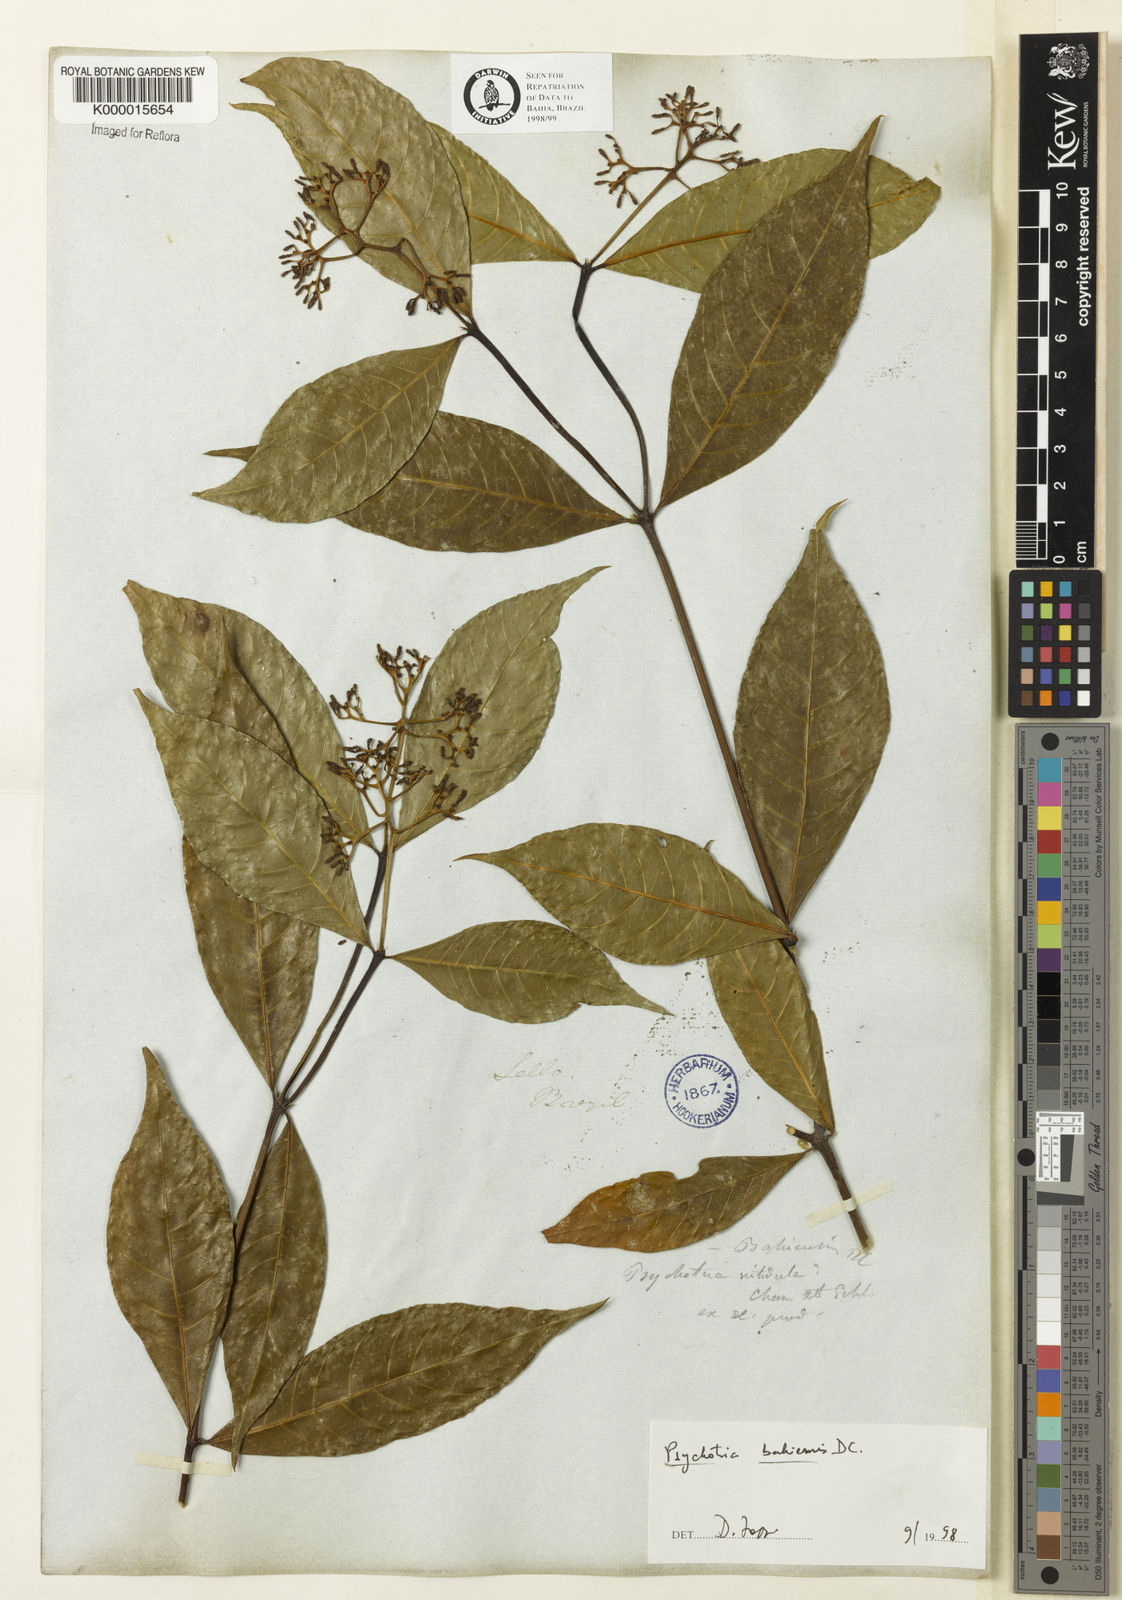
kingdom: Plantae
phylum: Tracheophyta
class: Magnoliopsida
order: Gentianales
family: Rubiaceae
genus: Psychotria
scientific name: Psychotria bahiensis
